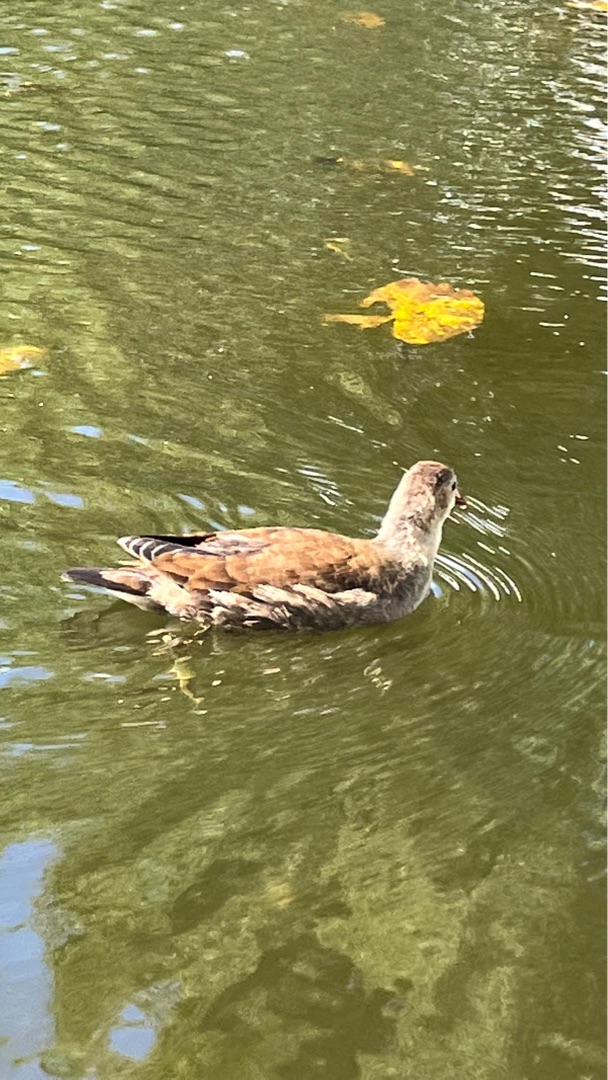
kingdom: Animalia
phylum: Chordata
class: Aves
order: Gruiformes
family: Rallidae
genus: Gallinula
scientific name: Gallinula chloropus
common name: Grønbenet rørhøne
